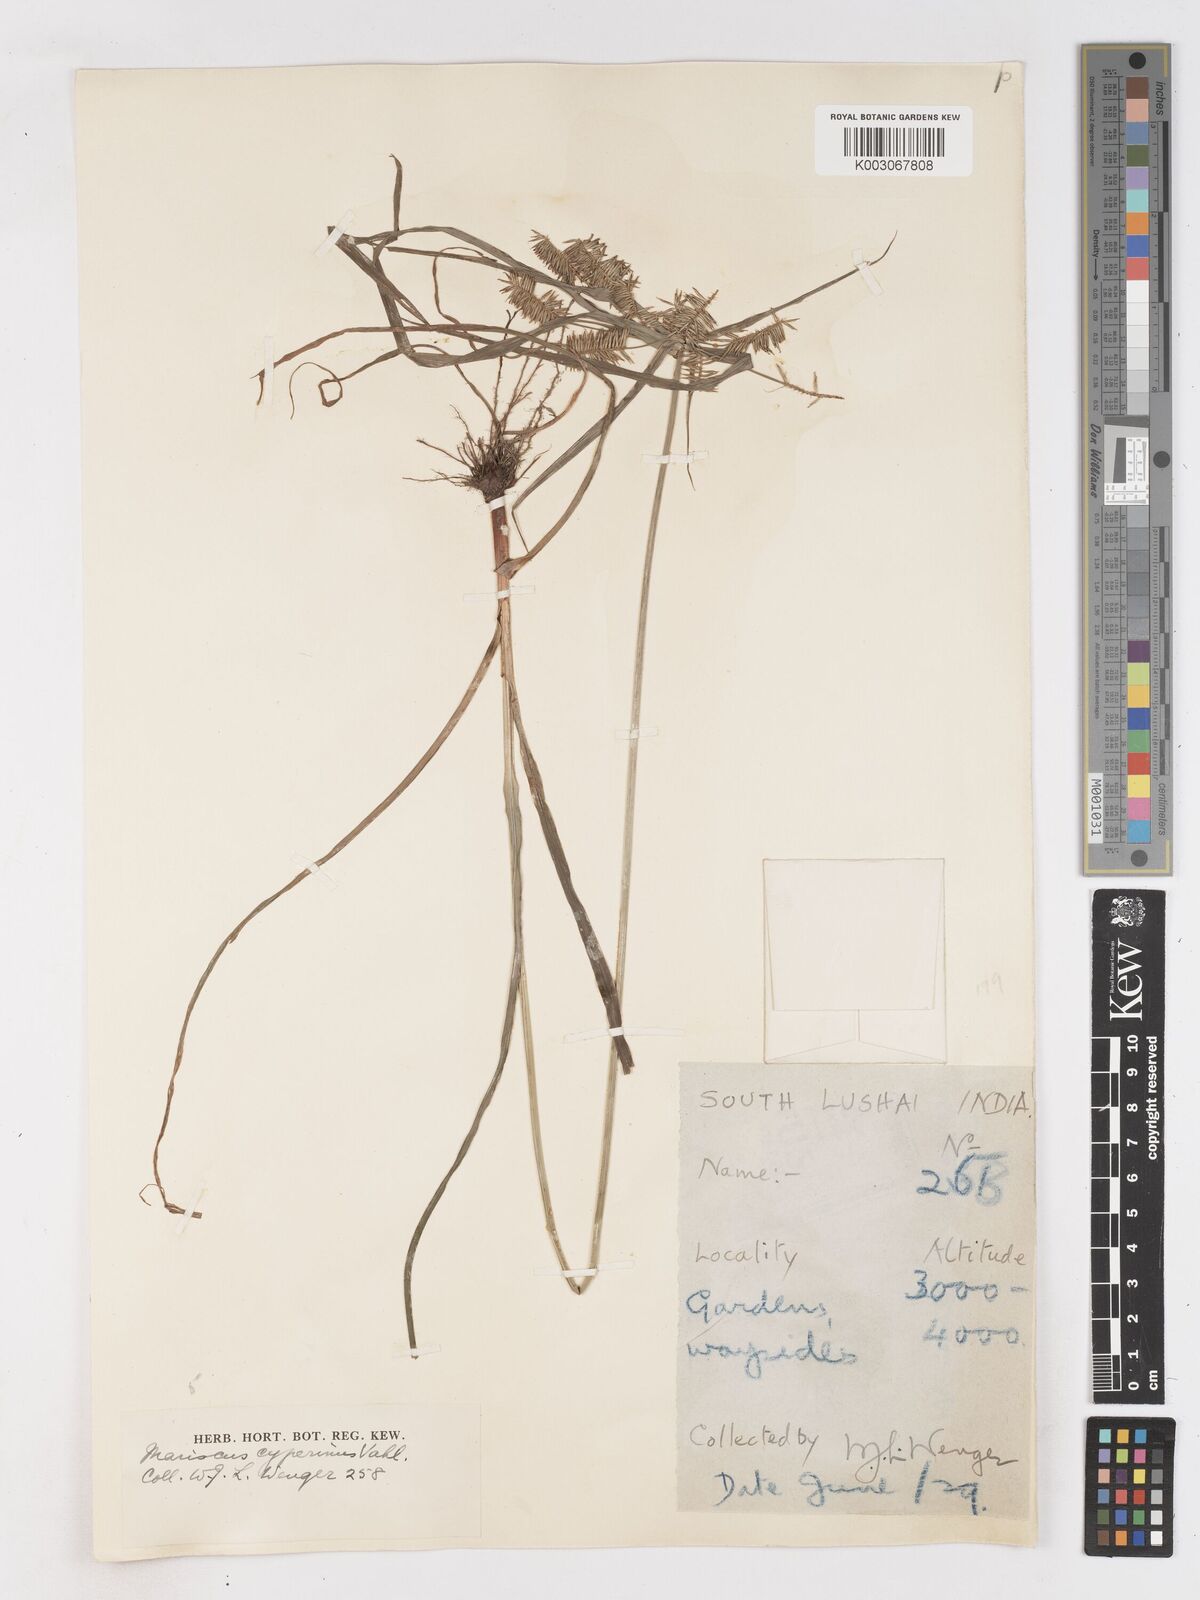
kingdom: Plantae
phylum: Tracheophyta
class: Liliopsida
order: Poales
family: Cyperaceae
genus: Cyperus
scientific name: Cyperus cyperoides
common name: Pacific island flat sedge
